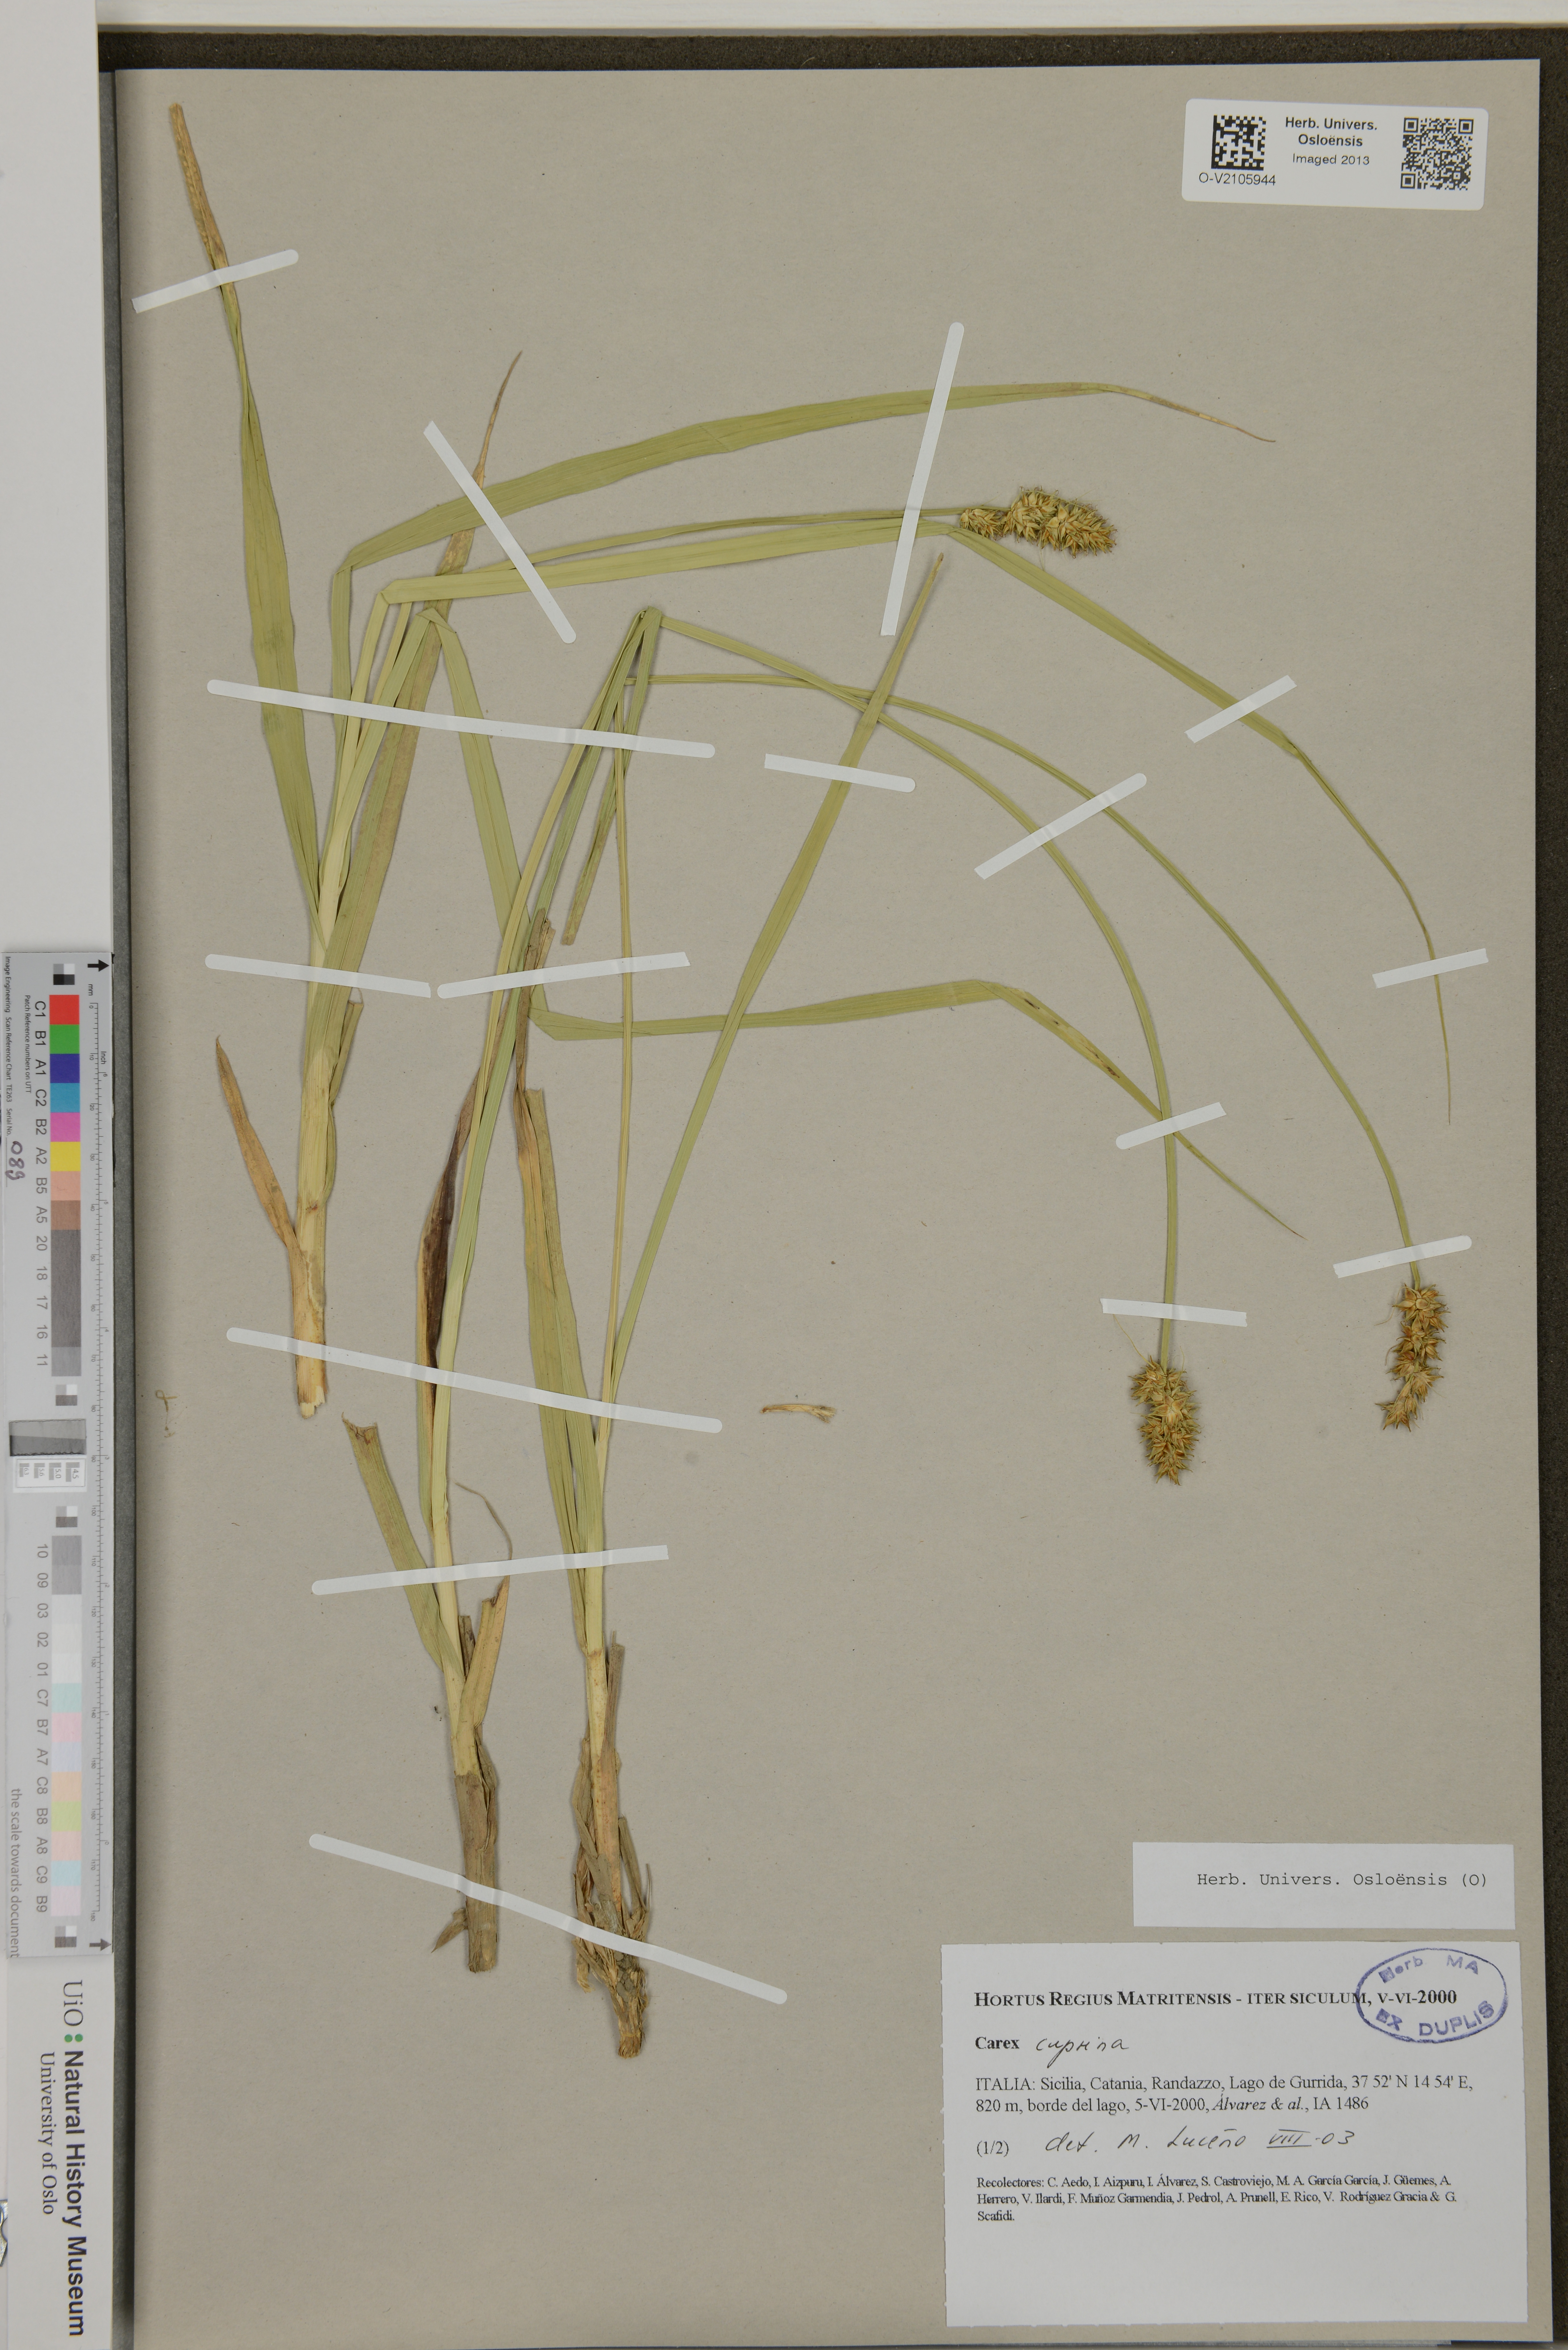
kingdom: Plantae
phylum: Tracheophyta
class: Liliopsida
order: Poales
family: Cyperaceae
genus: Carex
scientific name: Carex leersii
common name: Leers' sedge
